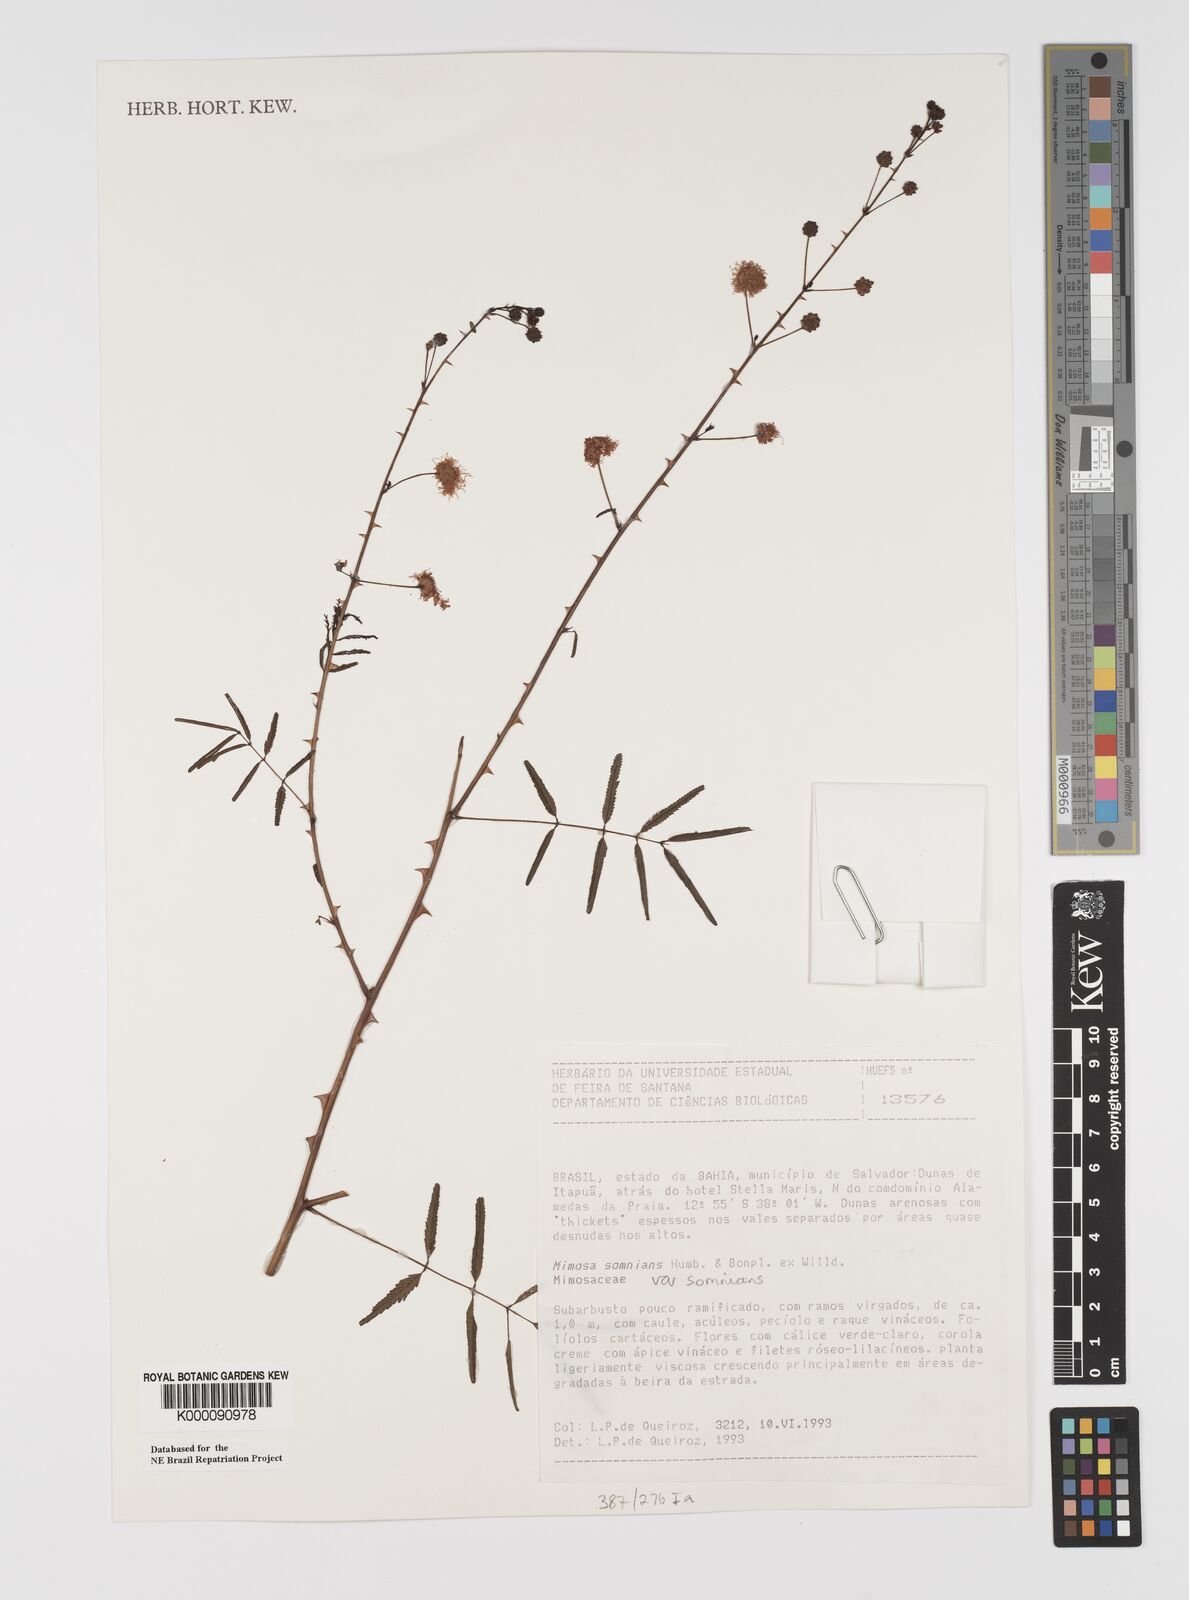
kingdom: Plantae
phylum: Tracheophyta
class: Magnoliopsida
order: Fabales
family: Fabaceae
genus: Mimosa
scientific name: Mimosa somnians
